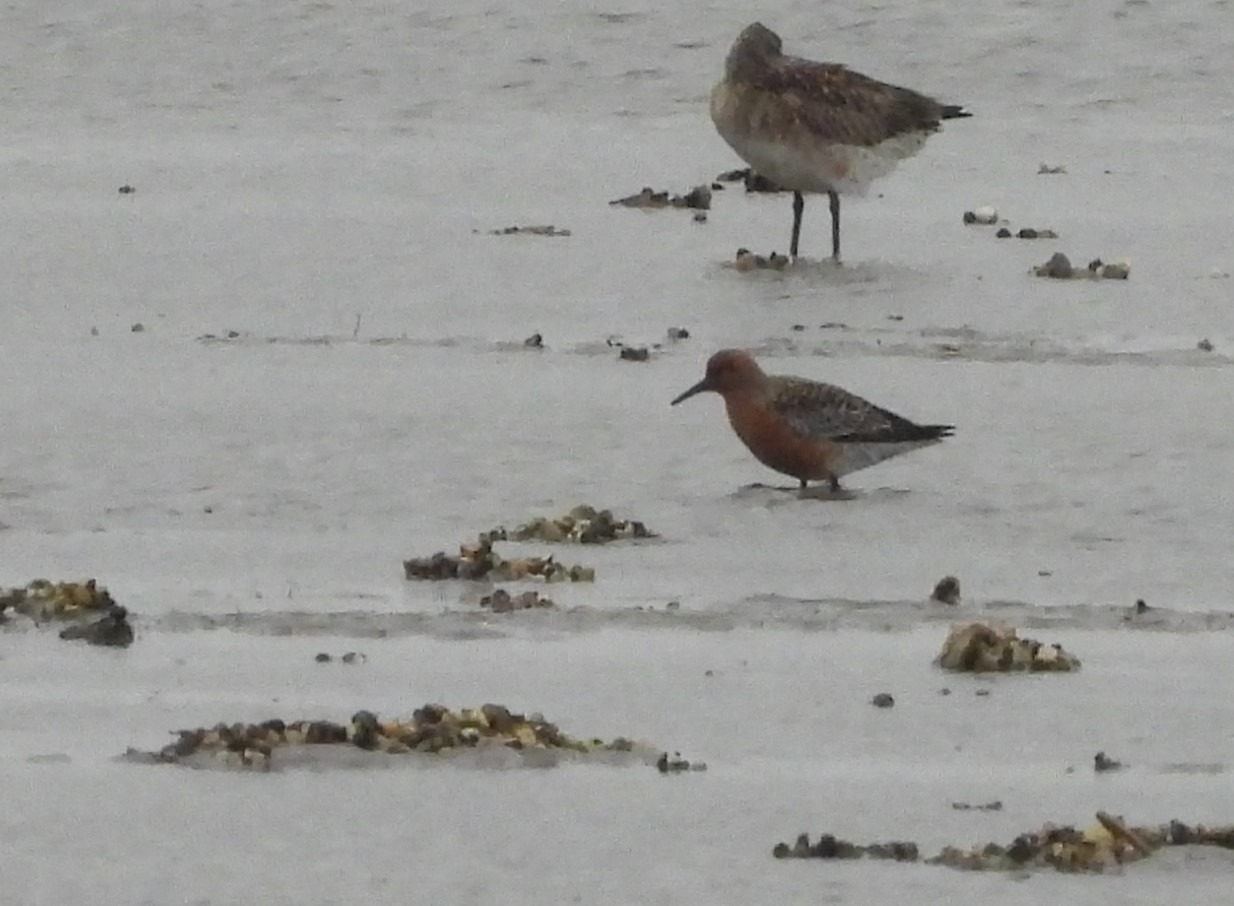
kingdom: Animalia
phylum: Chordata
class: Aves
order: Charadriiformes
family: Scolopacidae
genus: Calidris
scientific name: Calidris canutus
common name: Islandsk ryle
